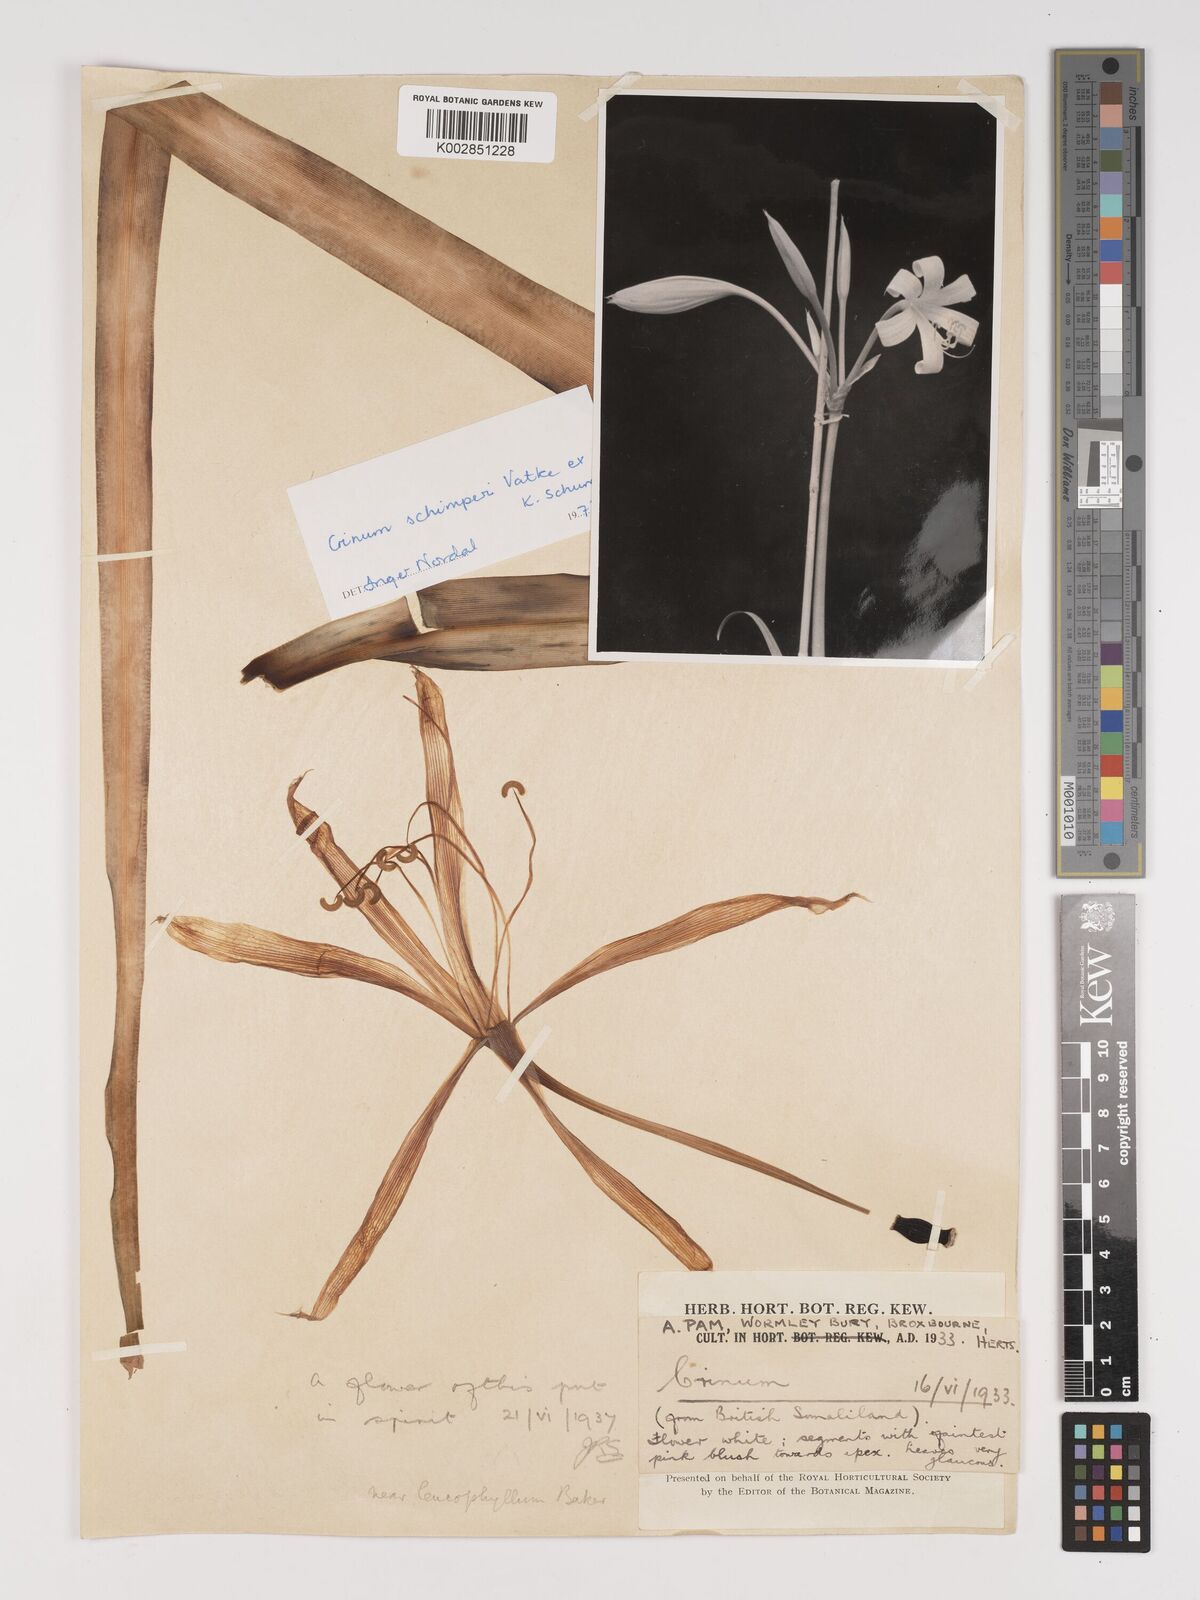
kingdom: Plantae
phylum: Tracheophyta
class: Liliopsida
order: Asparagales
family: Amaryllidaceae
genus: Crinum
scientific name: Crinum abyssinicum
